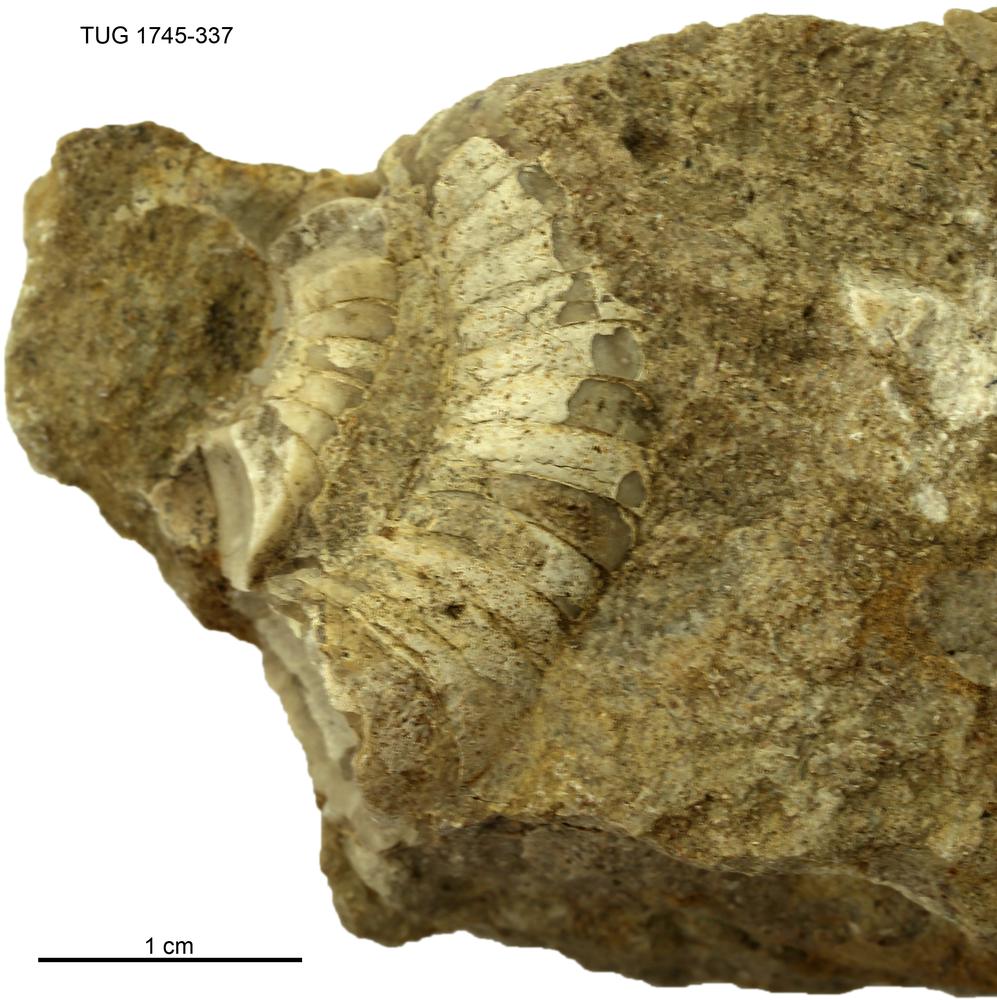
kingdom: Animalia
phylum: Mollusca
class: Cephalopoda
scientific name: Cephalopoda
